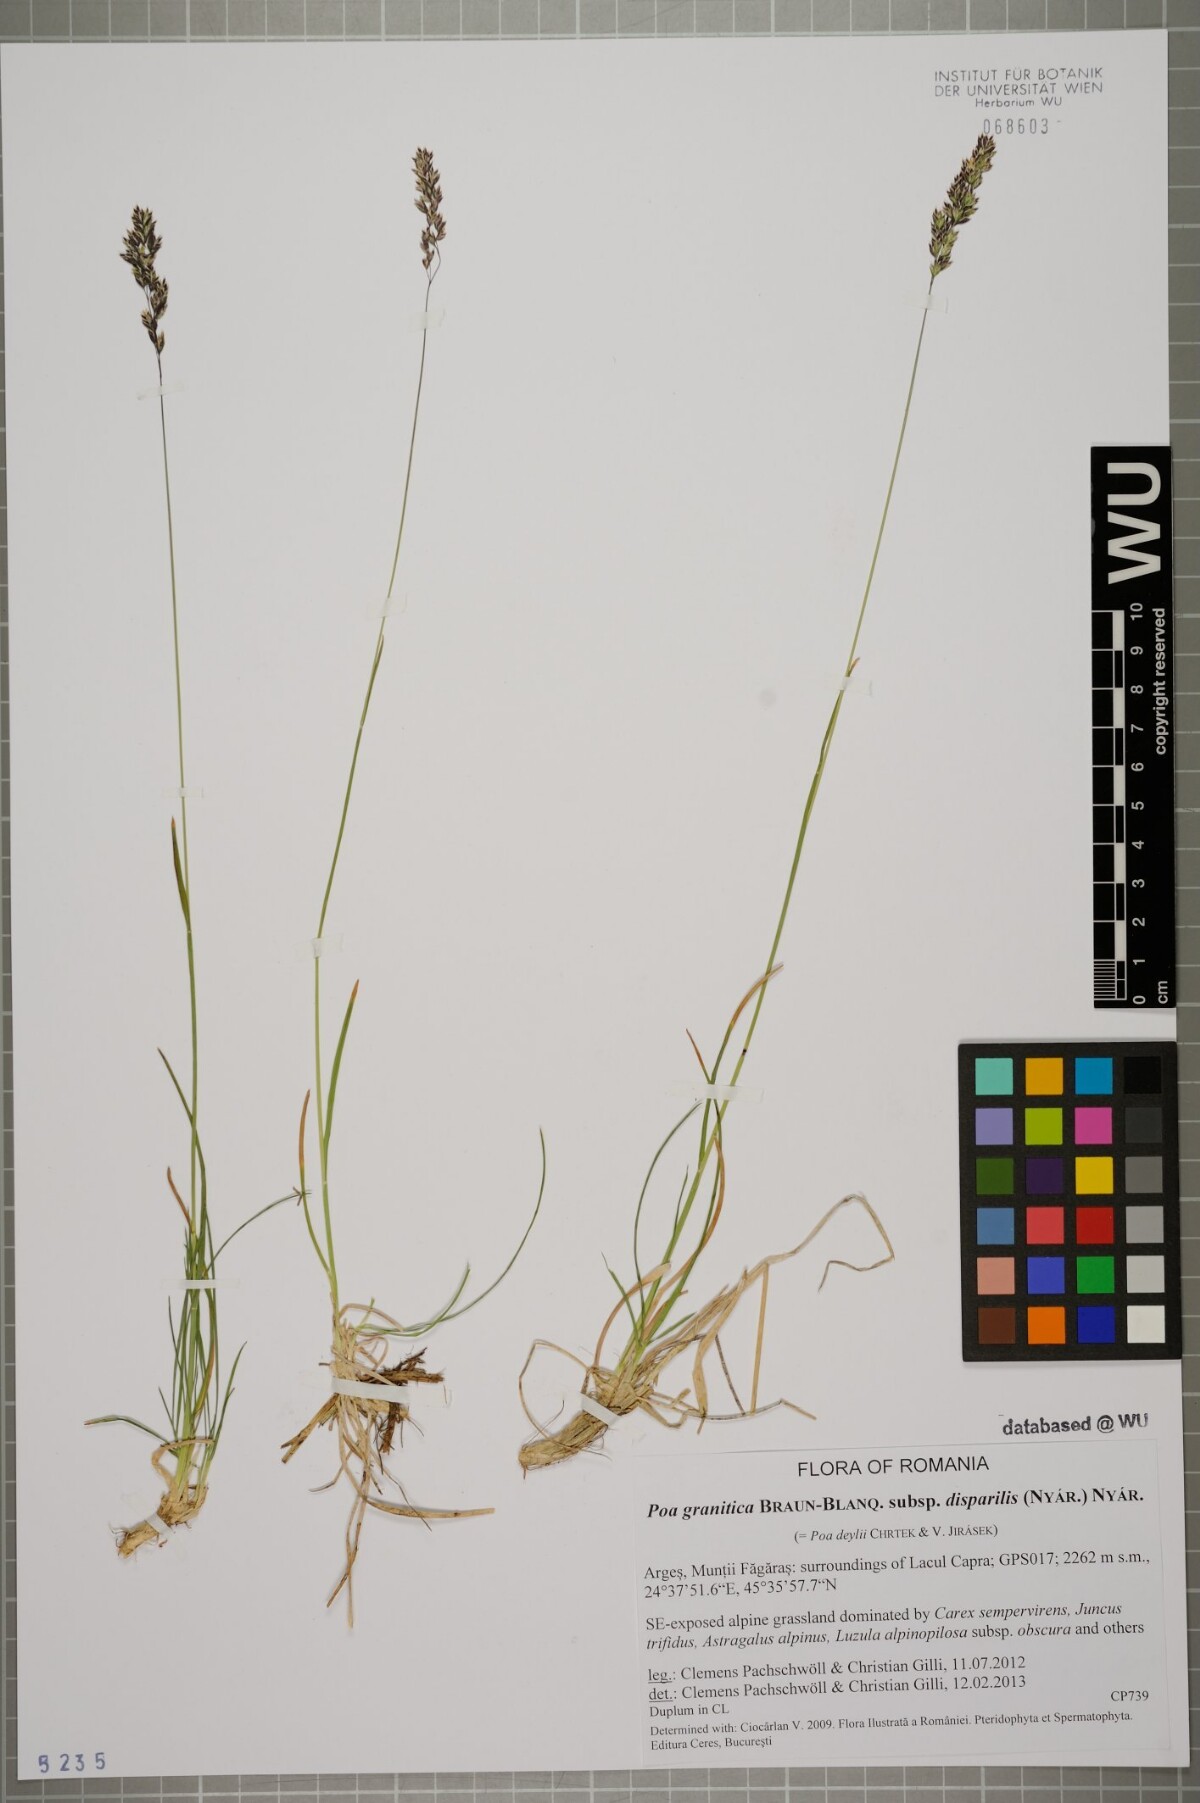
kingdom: Plantae
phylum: Tracheophyta
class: Liliopsida
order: Poales
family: Poaceae
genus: Poa
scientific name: Poa granitica
